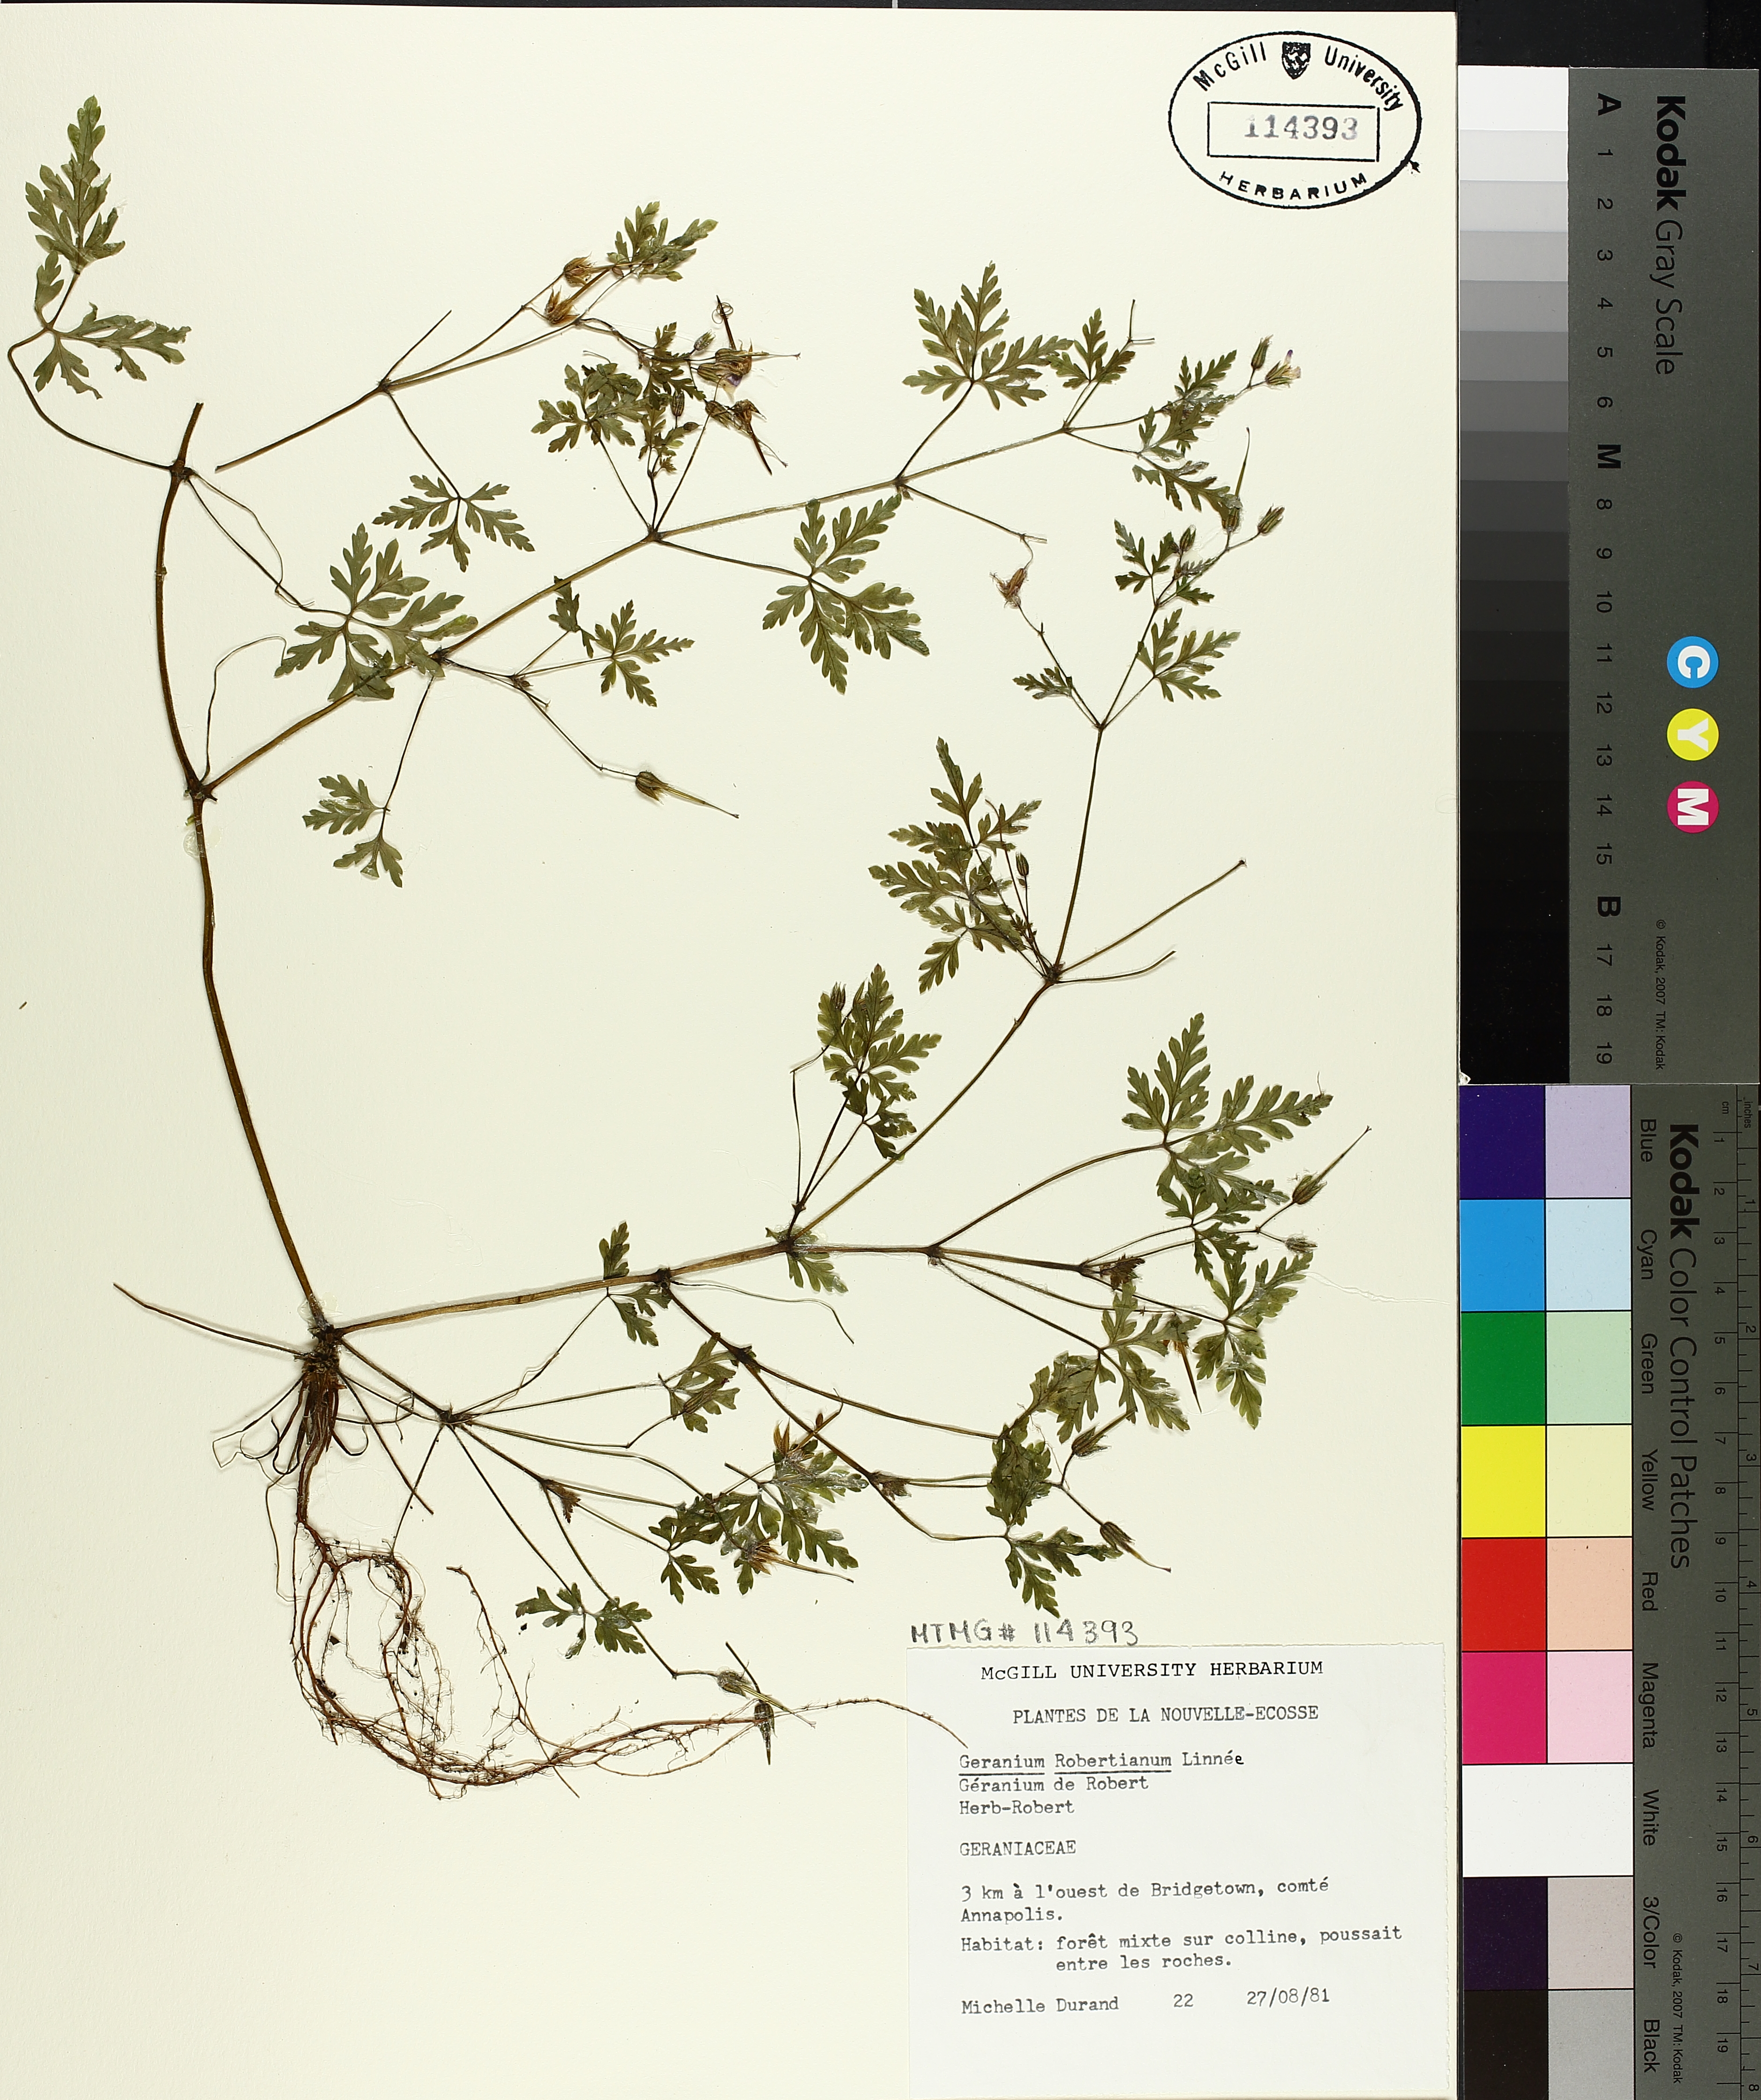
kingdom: Plantae
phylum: Tracheophyta
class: Magnoliopsida
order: Geraniales
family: Geraniaceae
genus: Geranium
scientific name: Geranium robertianum
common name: Herb-robert
